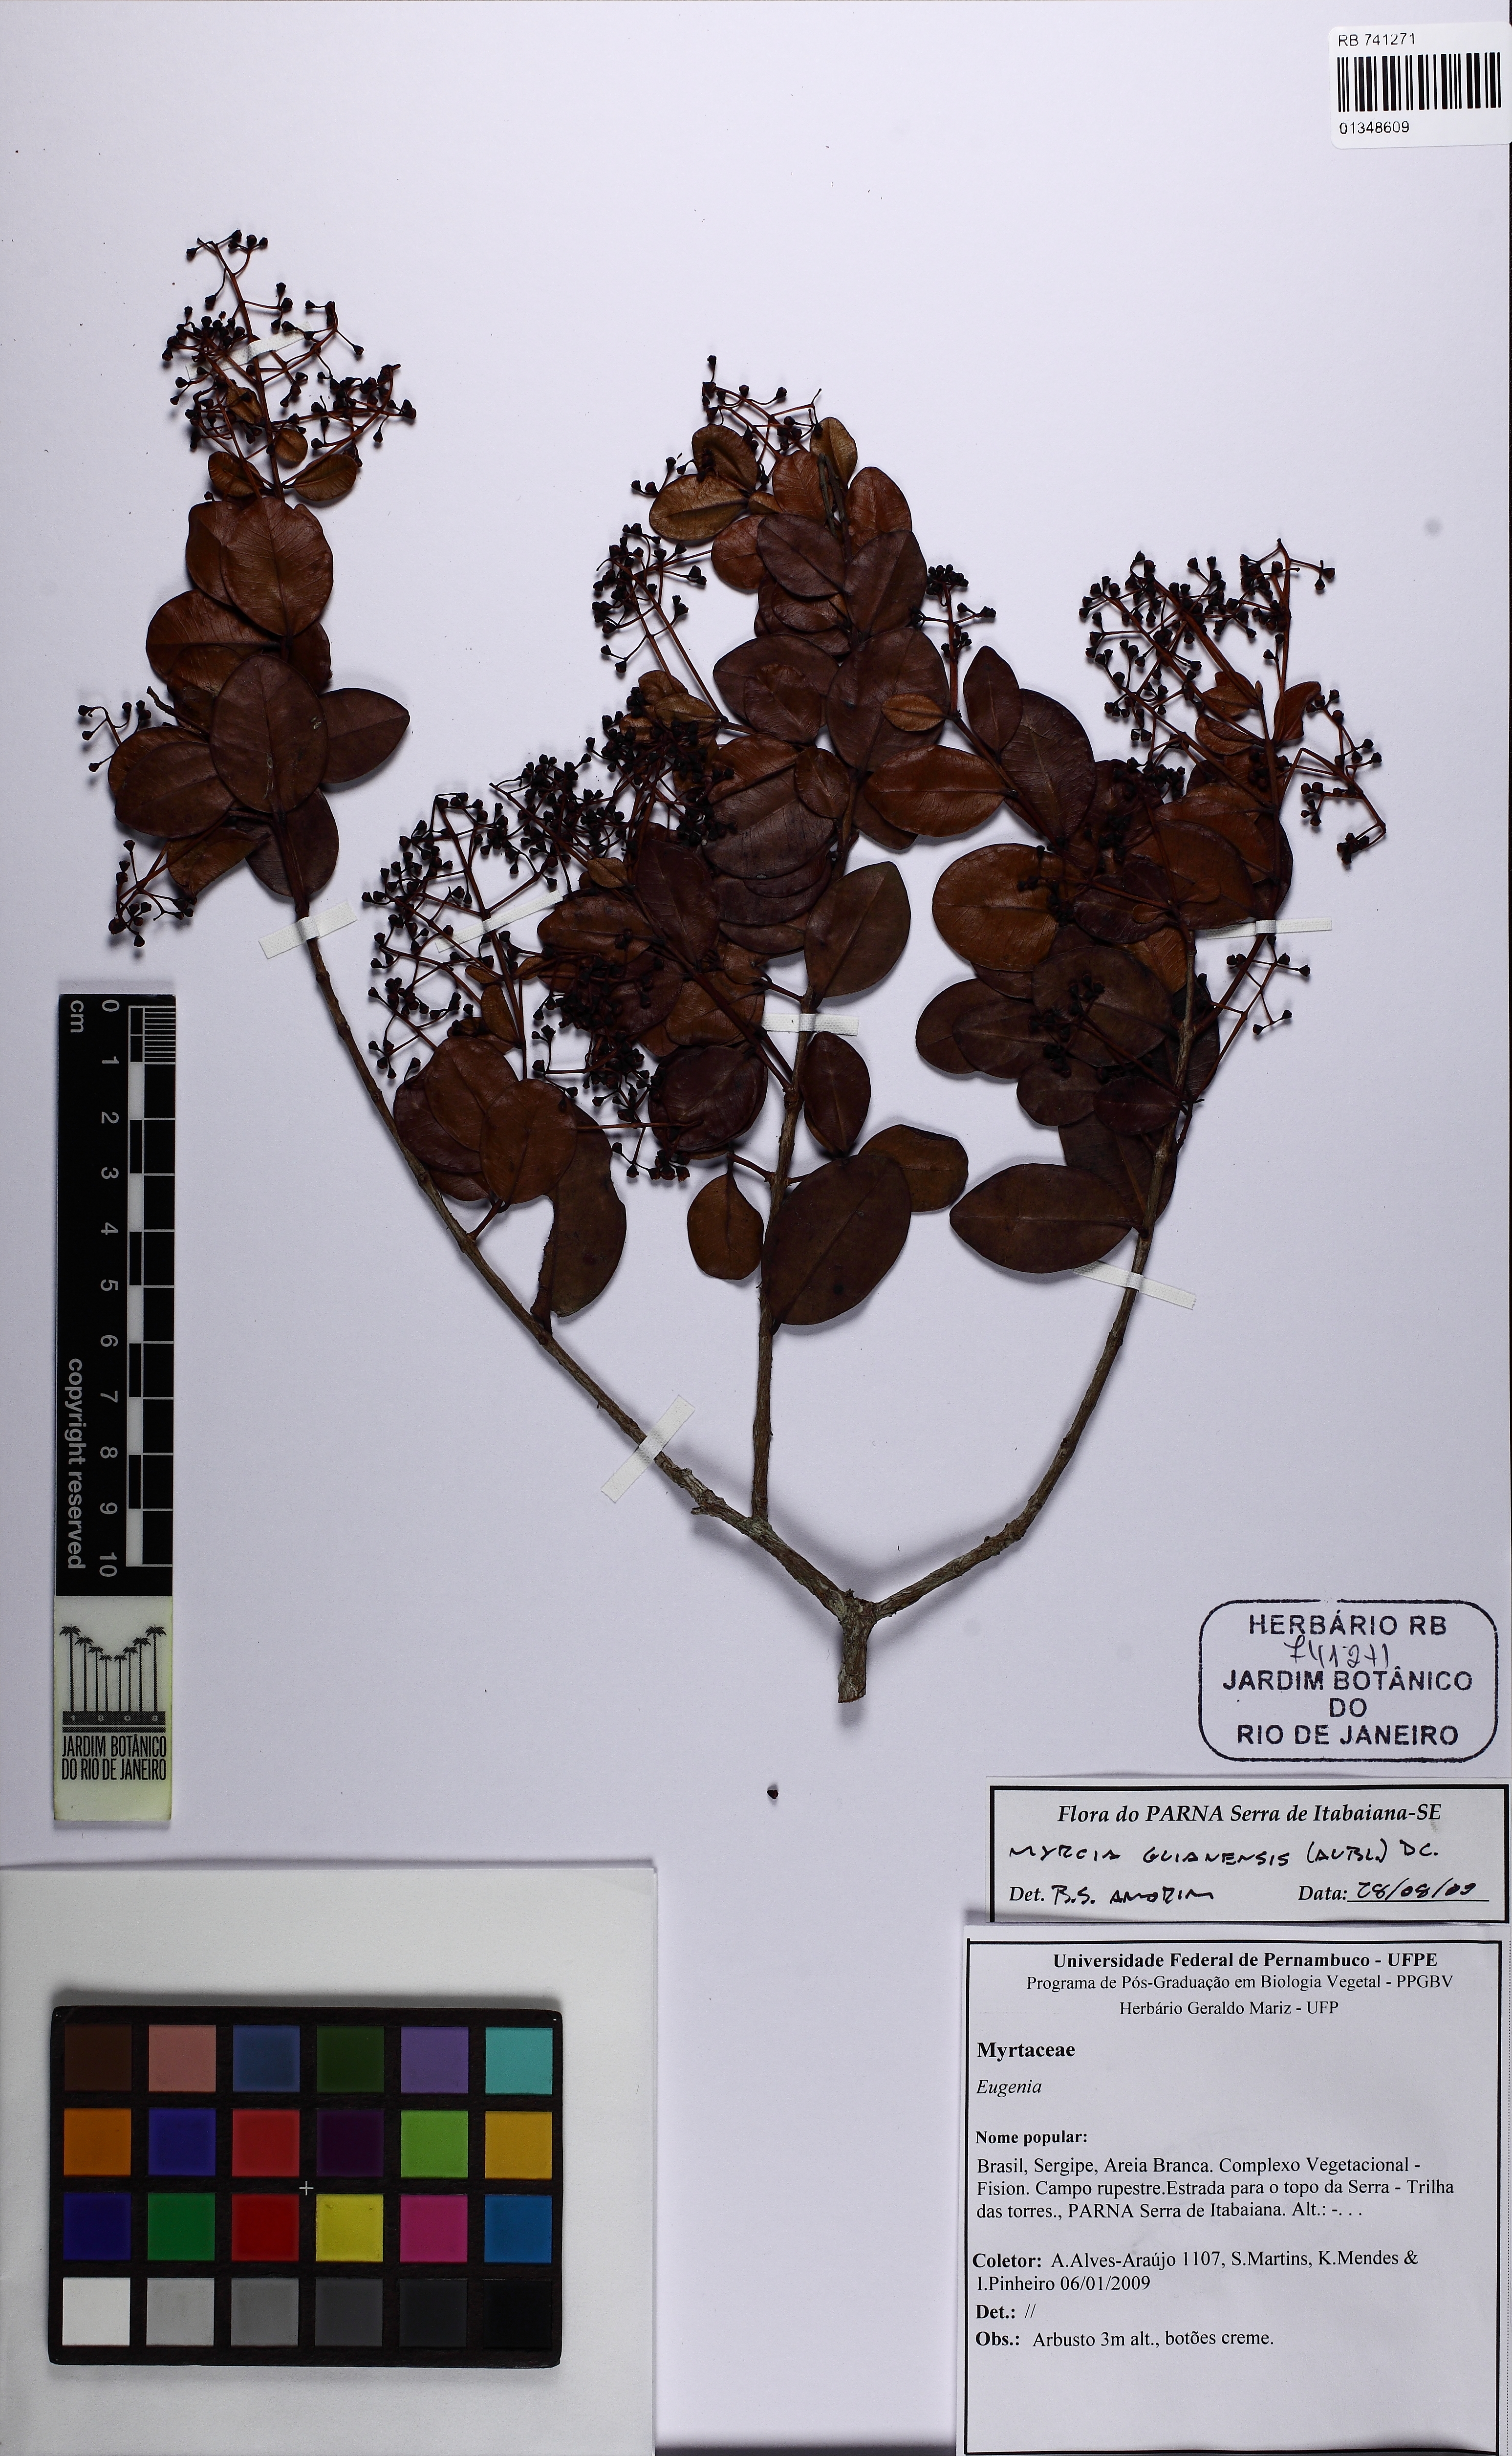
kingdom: Plantae
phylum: Tracheophyta
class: Magnoliopsida
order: Myrtales
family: Myrtaceae
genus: Myrcia
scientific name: Myrcia guianensis
